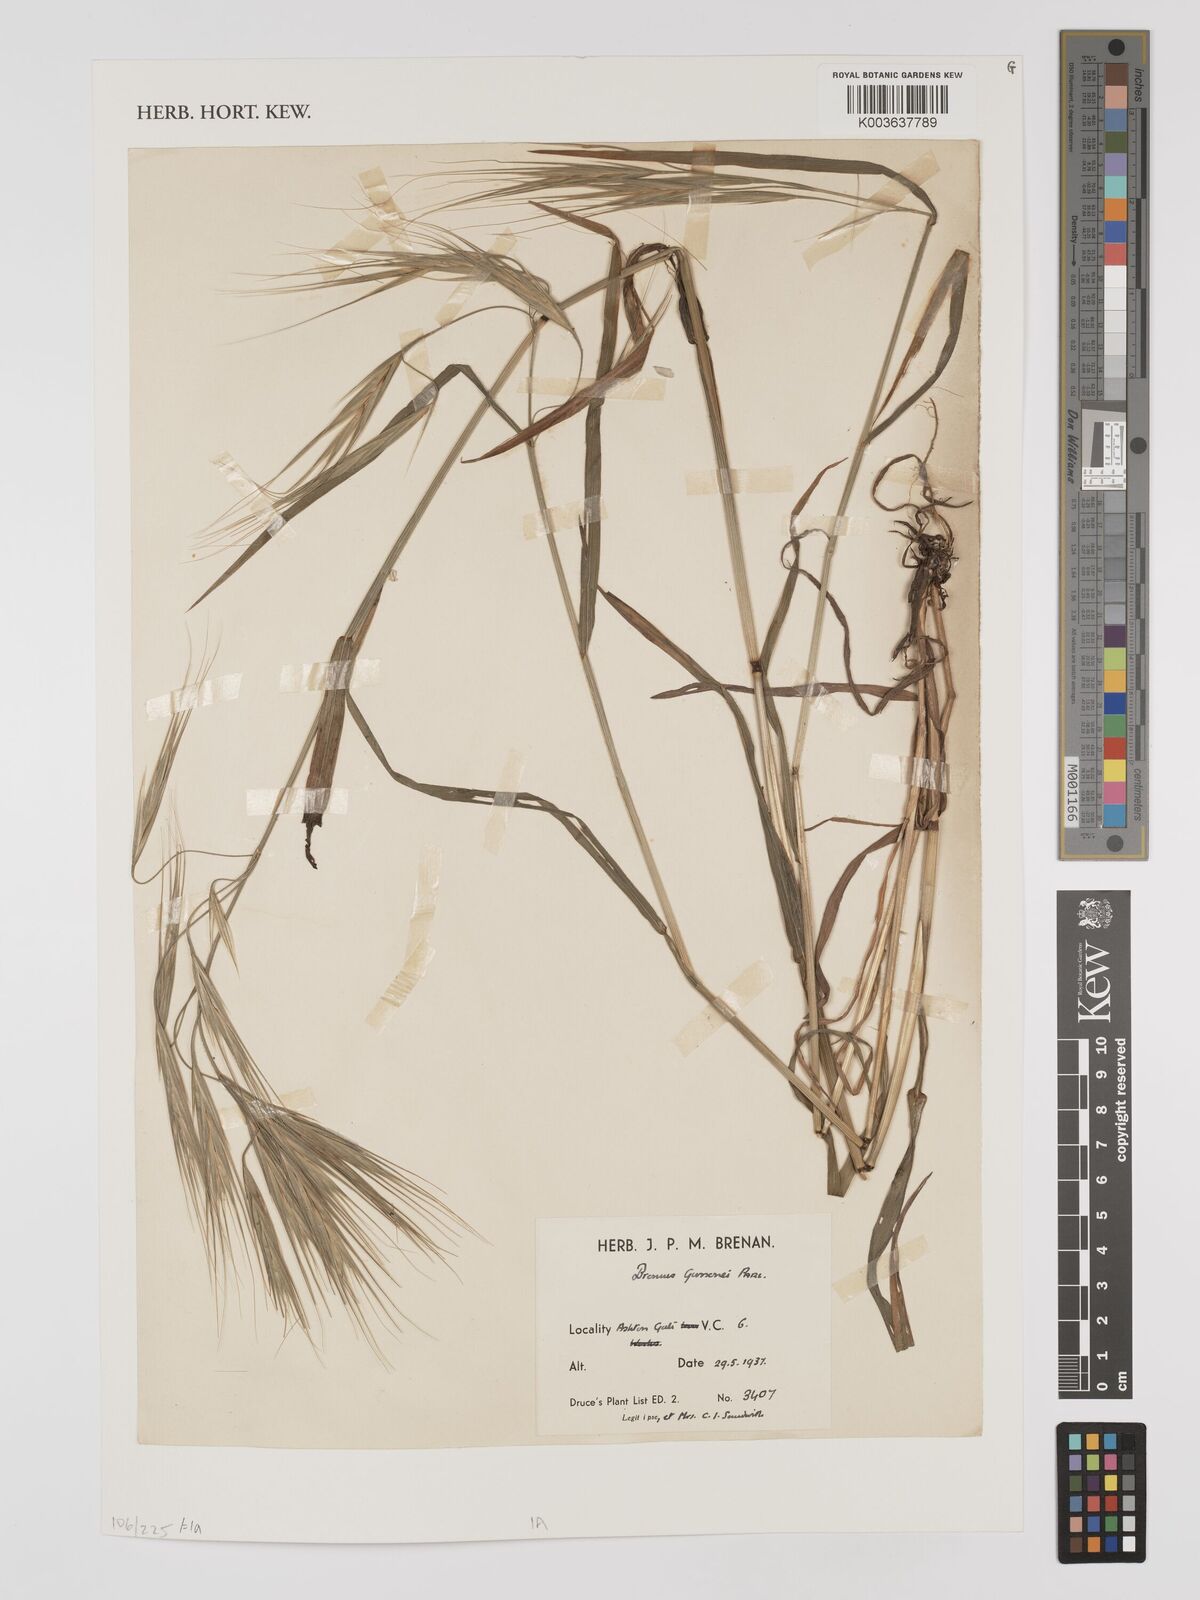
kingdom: Plantae
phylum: Tracheophyta
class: Liliopsida
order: Poales
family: Poaceae
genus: Bromus
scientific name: Bromus
